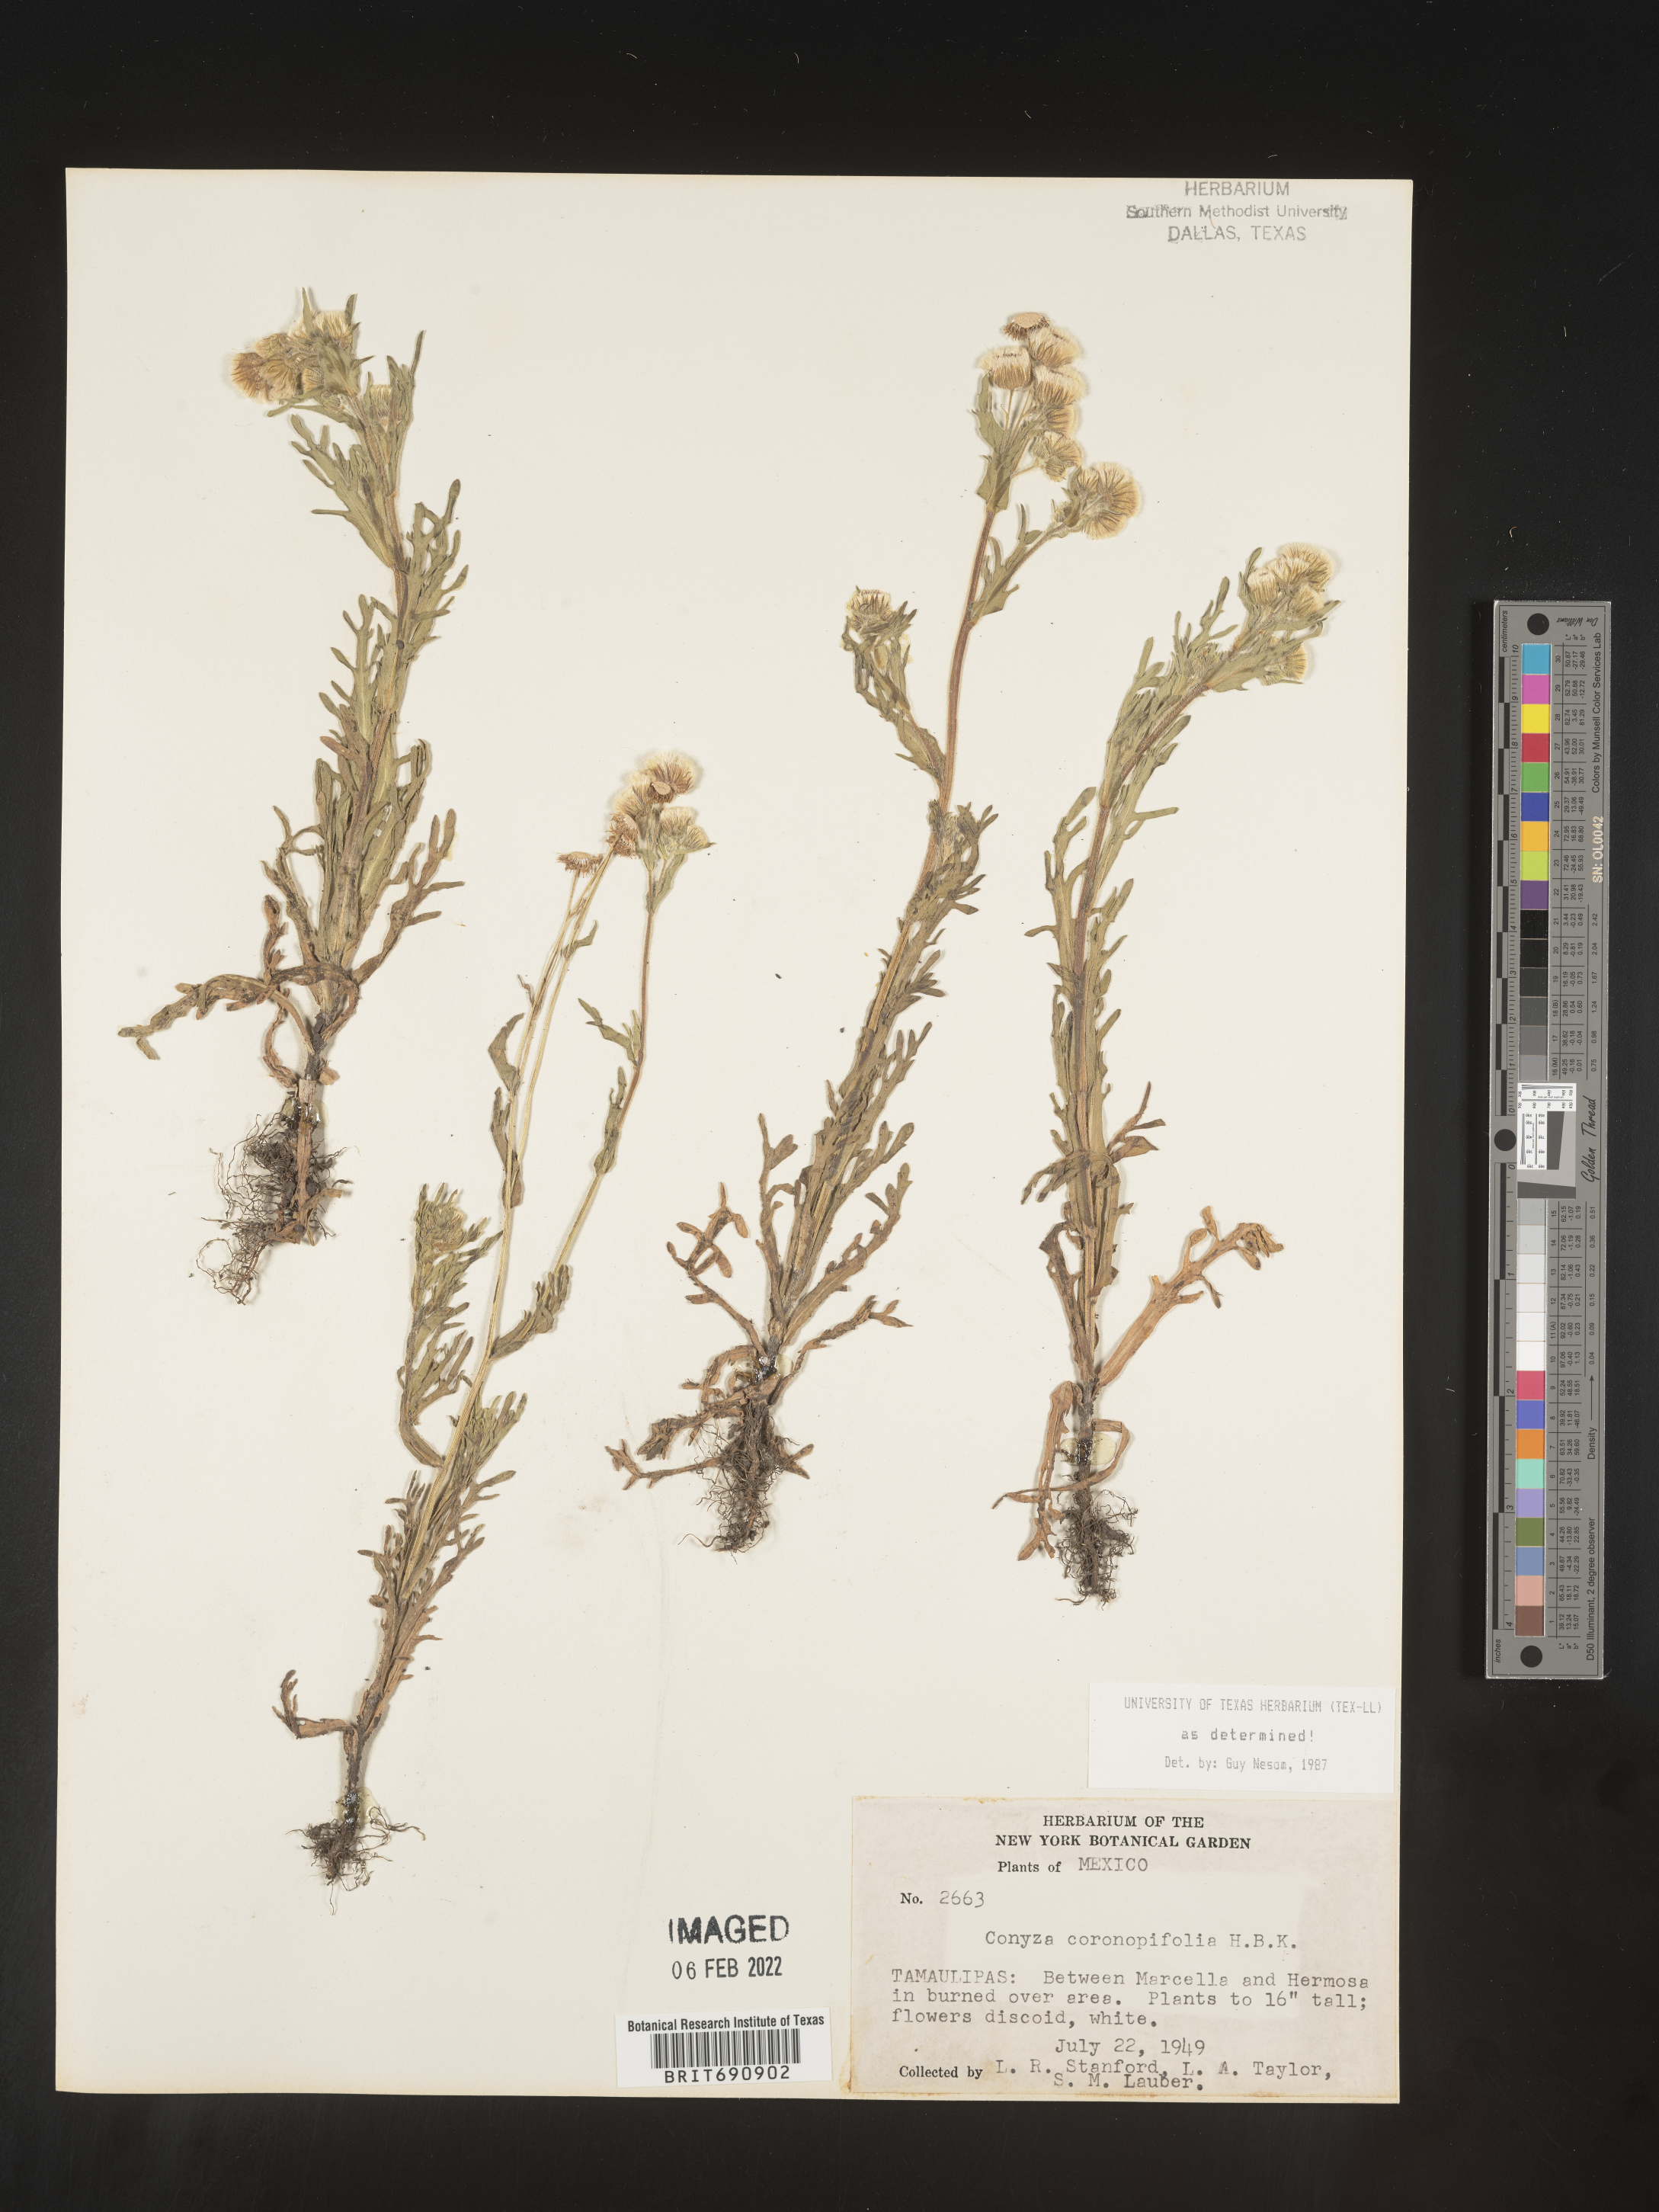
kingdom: Plantae
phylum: Tracheophyta
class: Magnoliopsida
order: Asterales
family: Asteraceae
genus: Erigeron
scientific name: Erigeron variifolius
